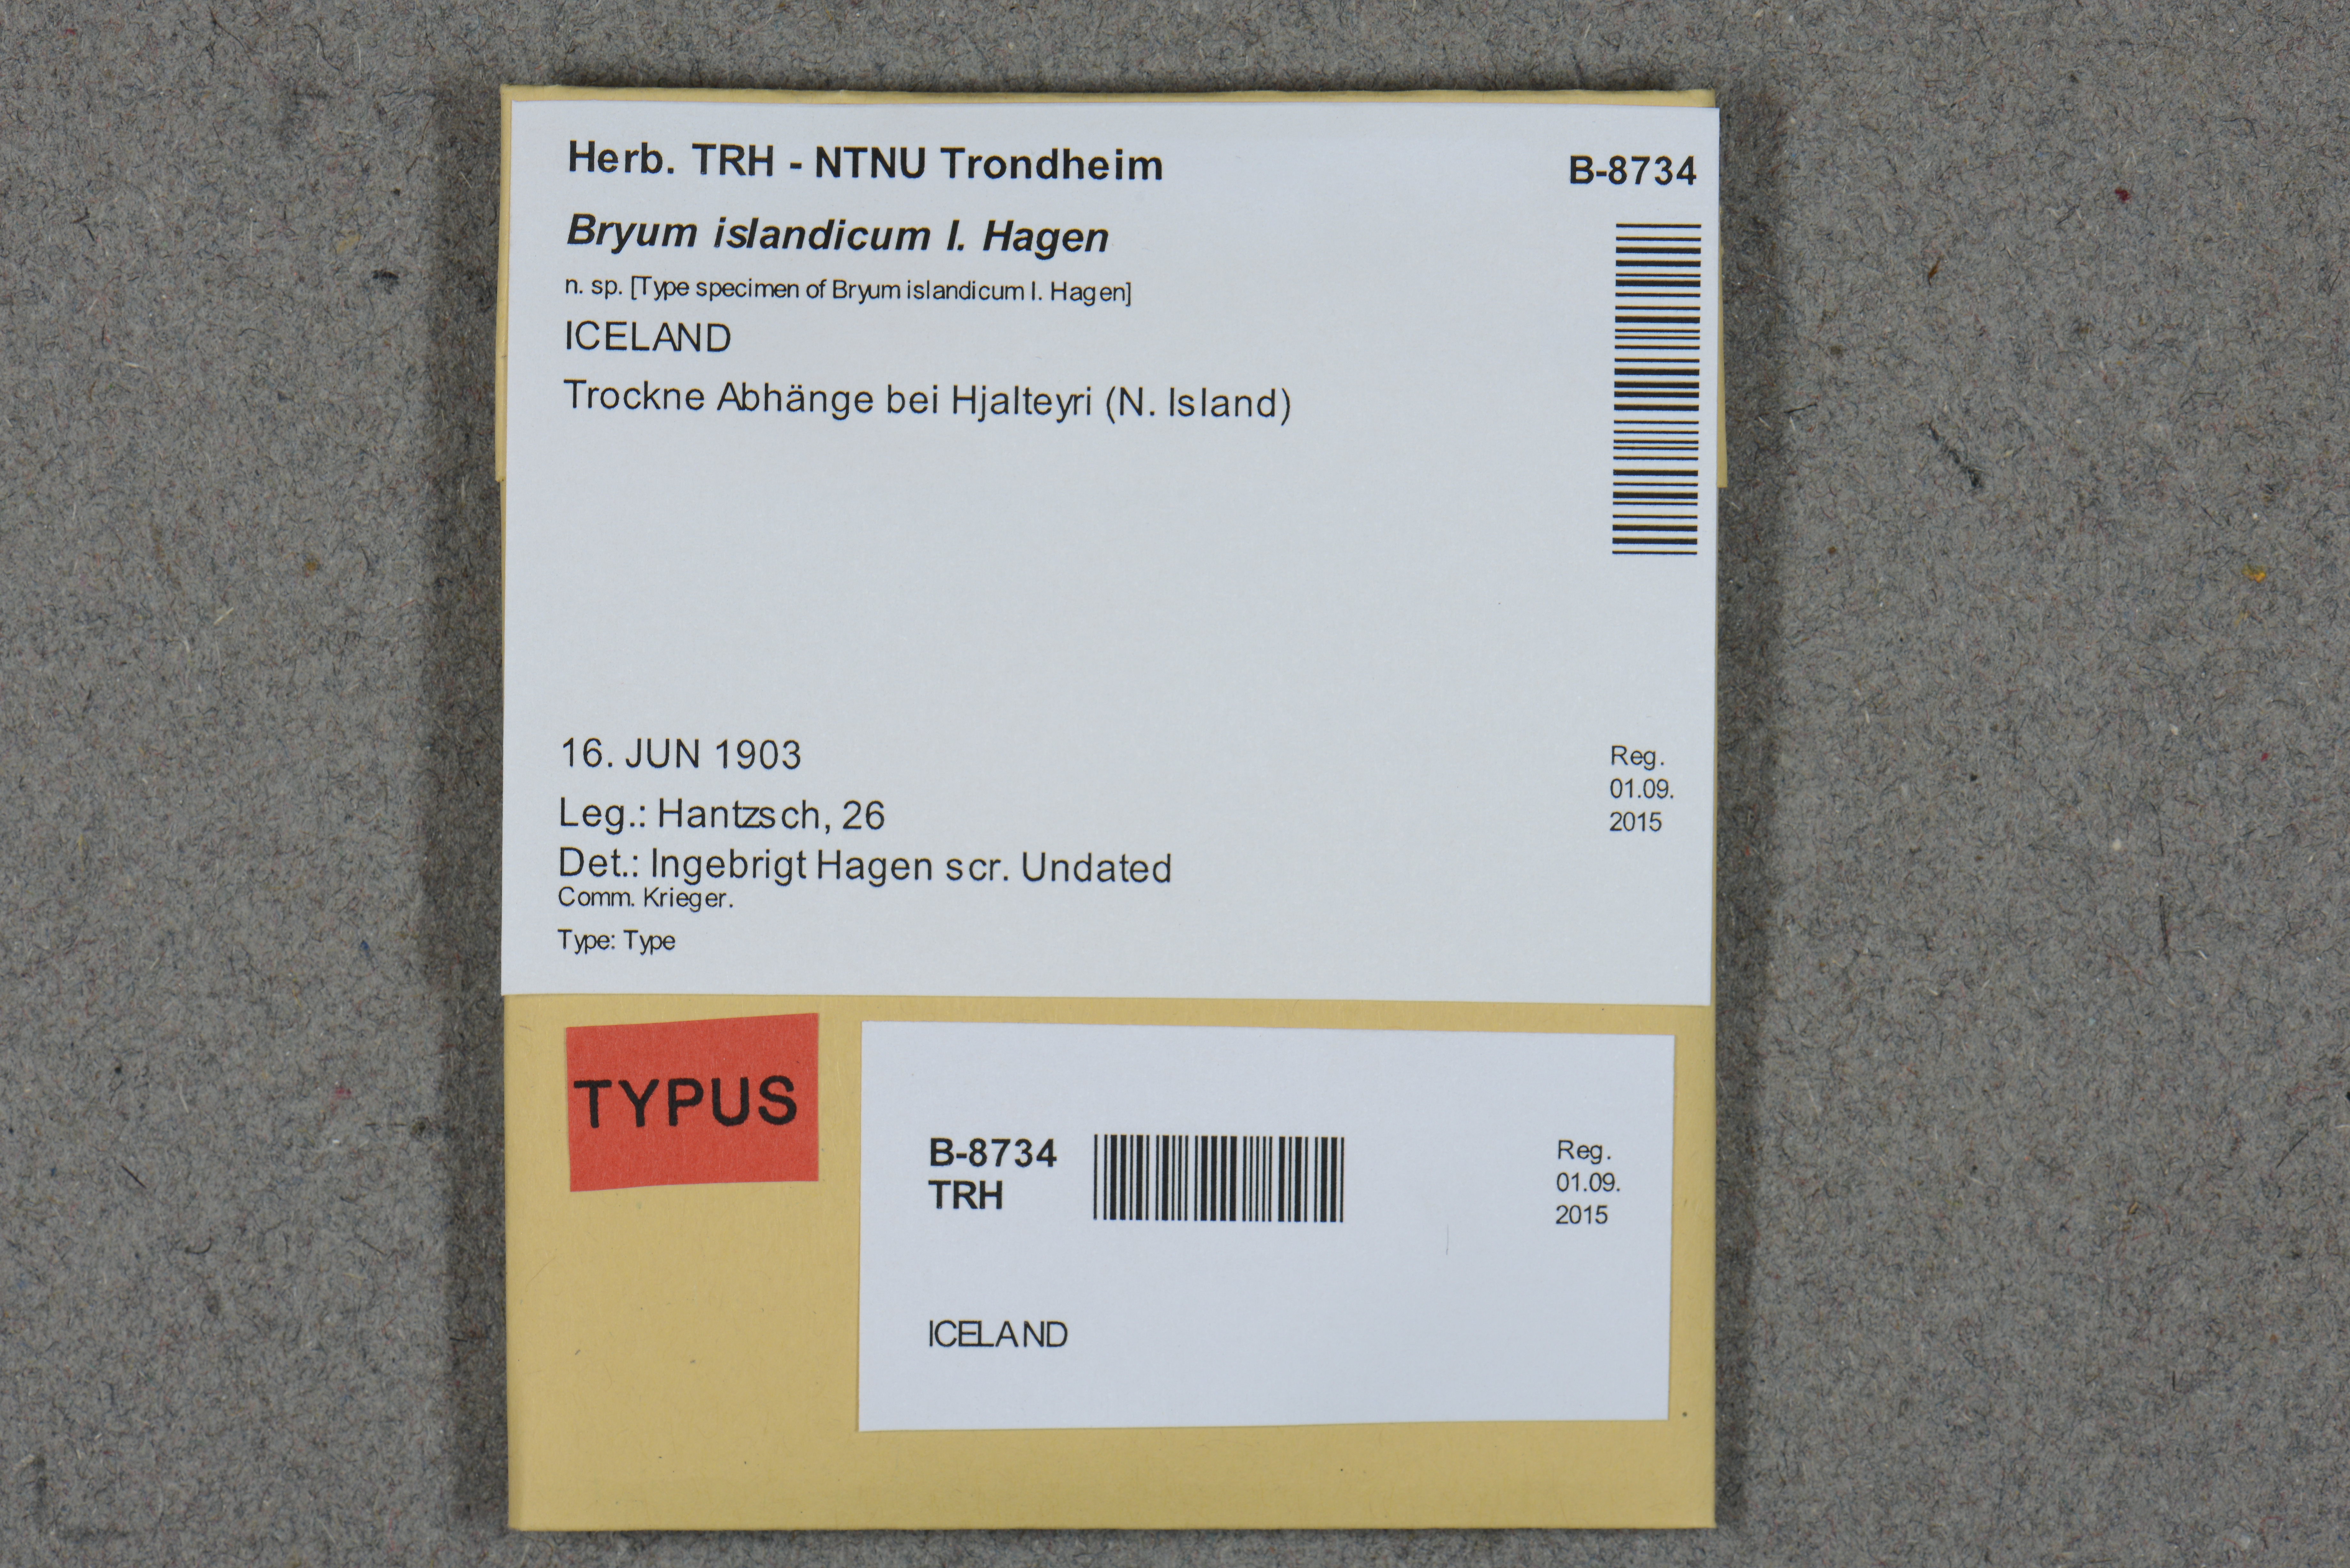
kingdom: Plantae
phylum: Bryophyta
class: Bryopsida
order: Bryales
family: Bryaceae
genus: Ptychostomum
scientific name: Ptychostomum inclinatum
